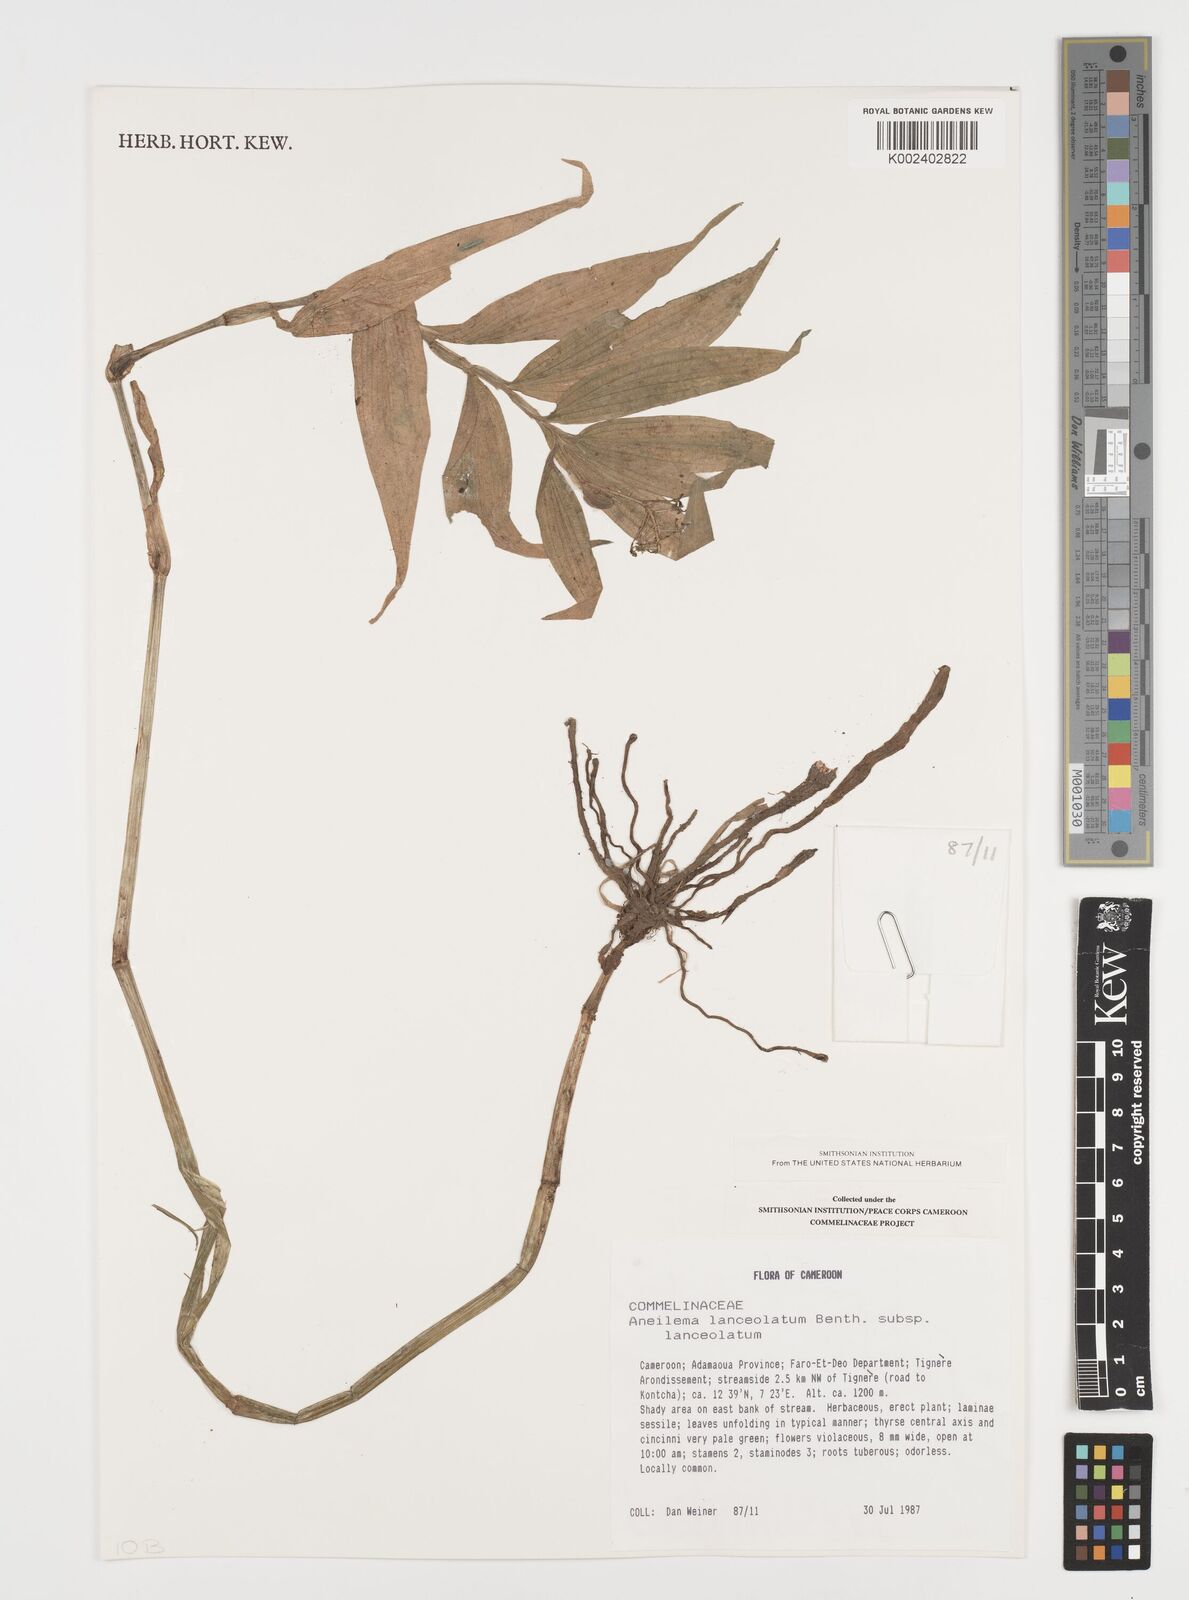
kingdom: Plantae
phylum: Tracheophyta
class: Liliopsida
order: Commelinales
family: Commelinaceae
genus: Aneilema
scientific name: Aneilema lanceolatum
